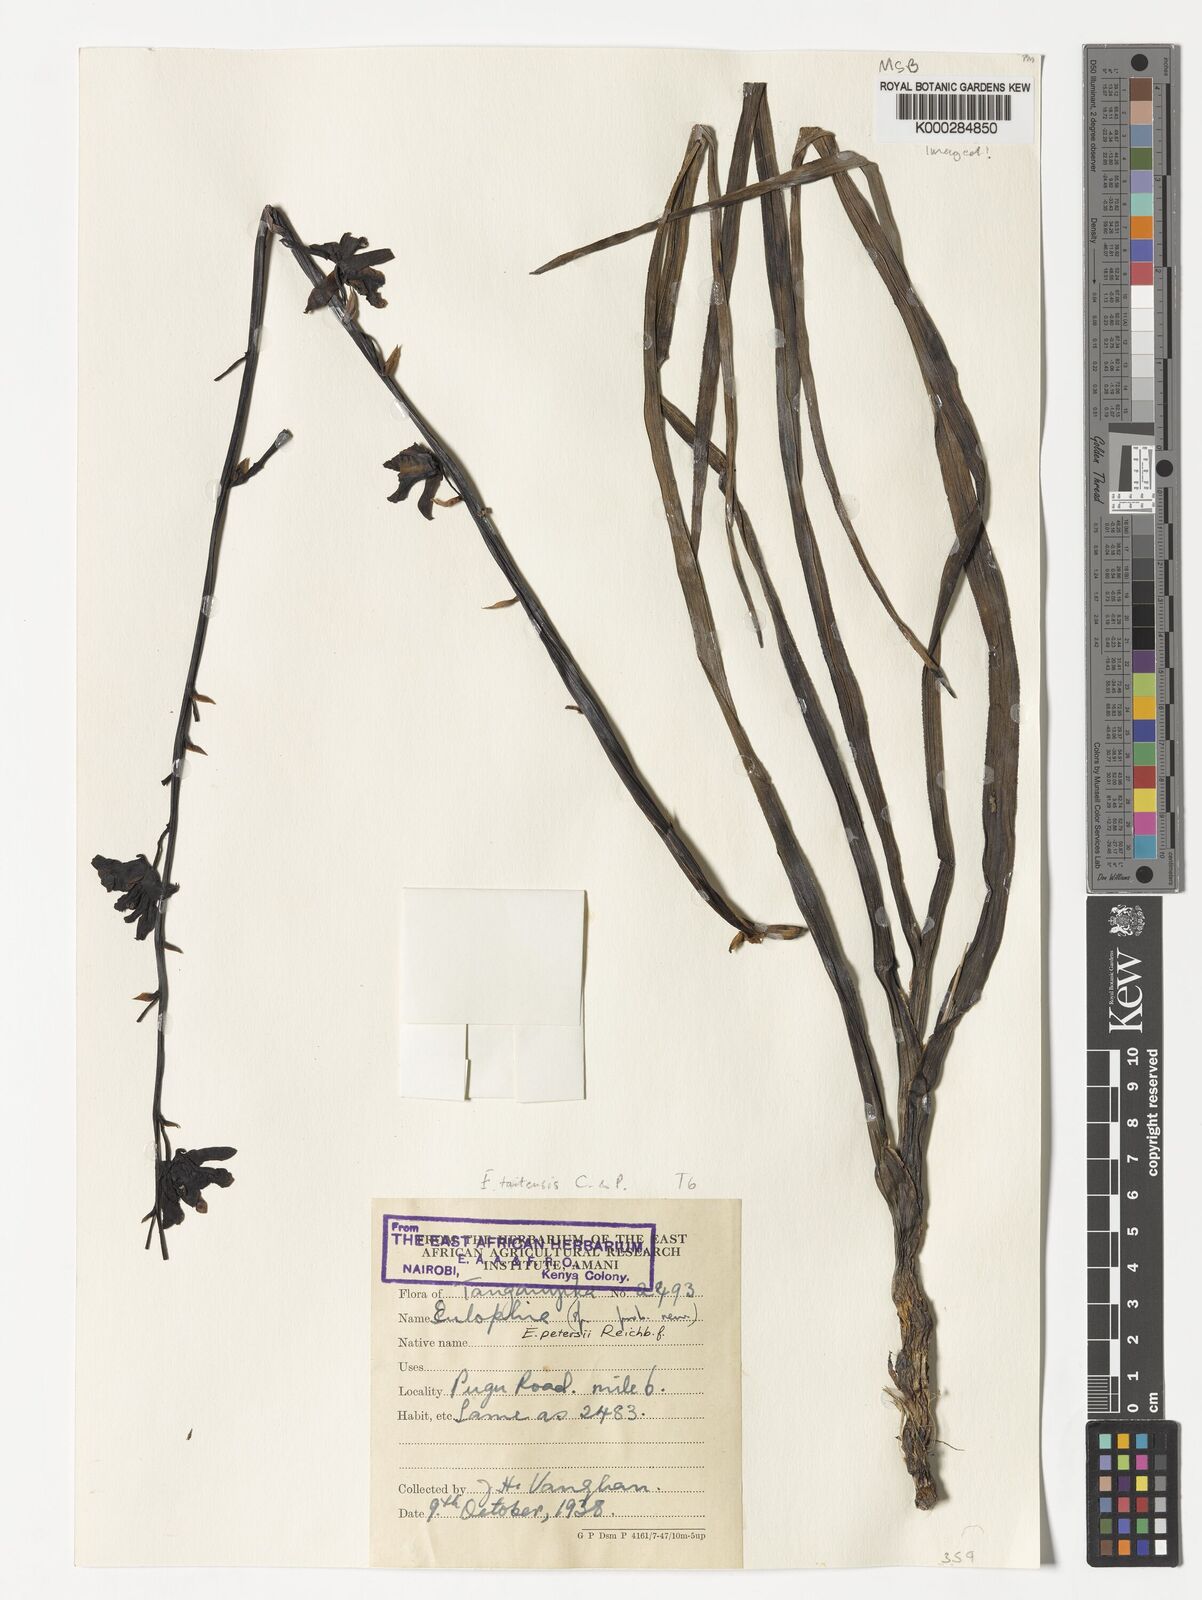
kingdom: Plantae
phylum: Tracheophyta
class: Liliopsida
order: Asparagales
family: Orchidaceae
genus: Eulophia
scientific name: Eulophia taitensis
